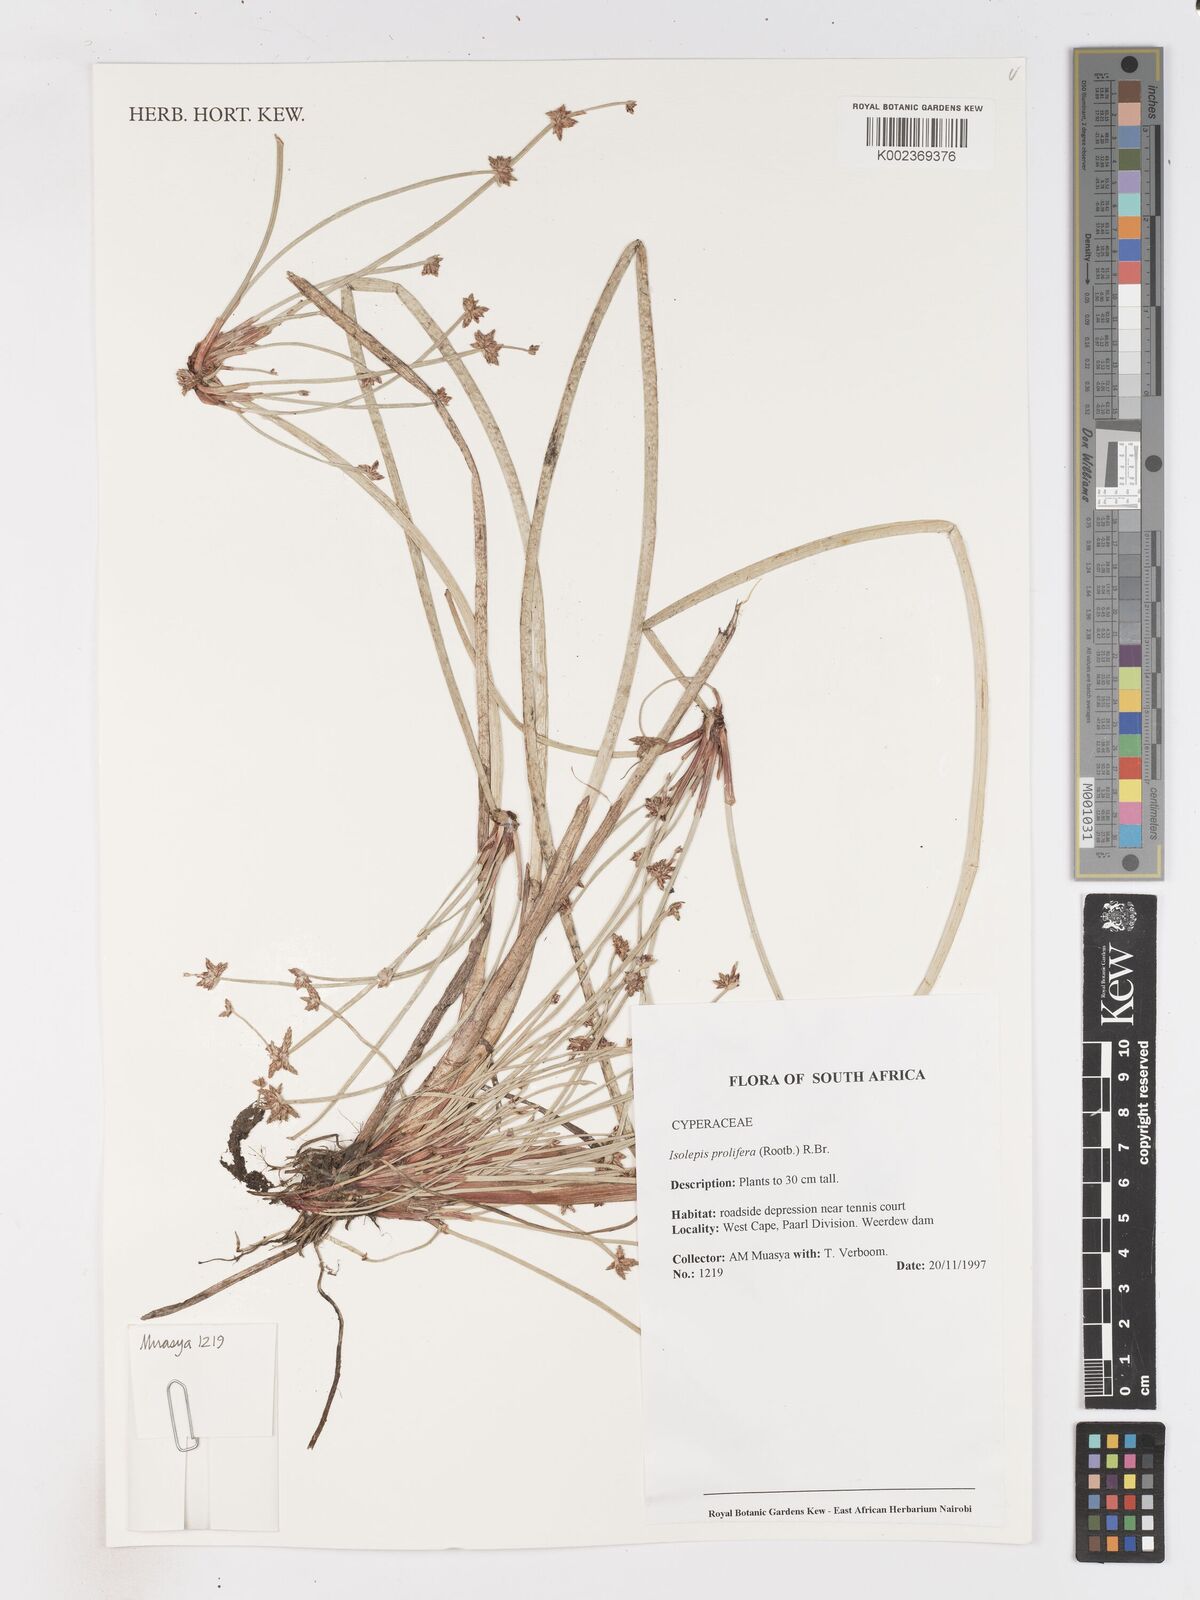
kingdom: Plantae
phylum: Tracheophyta
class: Liliopsida
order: Poales
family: Cyperaceae
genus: Isolepis
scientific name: Isolepis prolifera
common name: Proliferating bulrush
